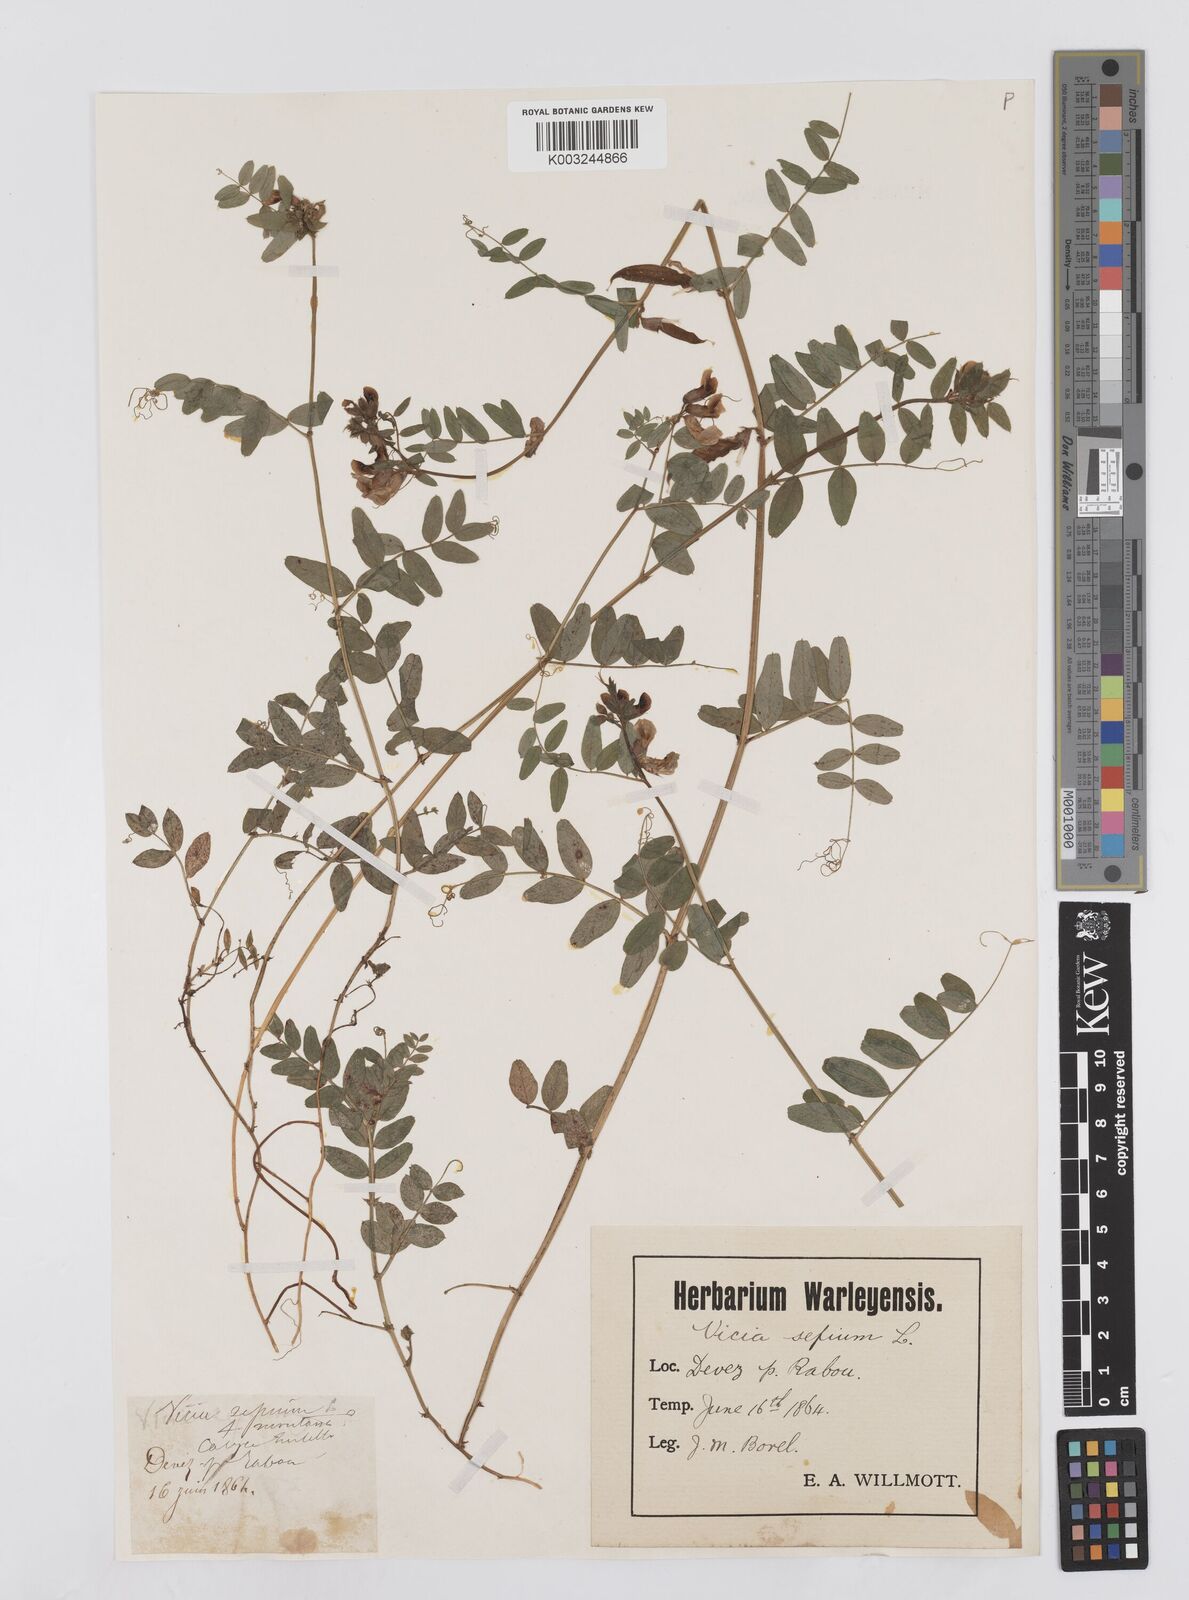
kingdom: Plantae
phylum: Tracheophyta
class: Magnoliopsida
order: Fabales
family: Fabaceae
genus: Vicia
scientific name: Vicia sepium
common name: Bush vetch
